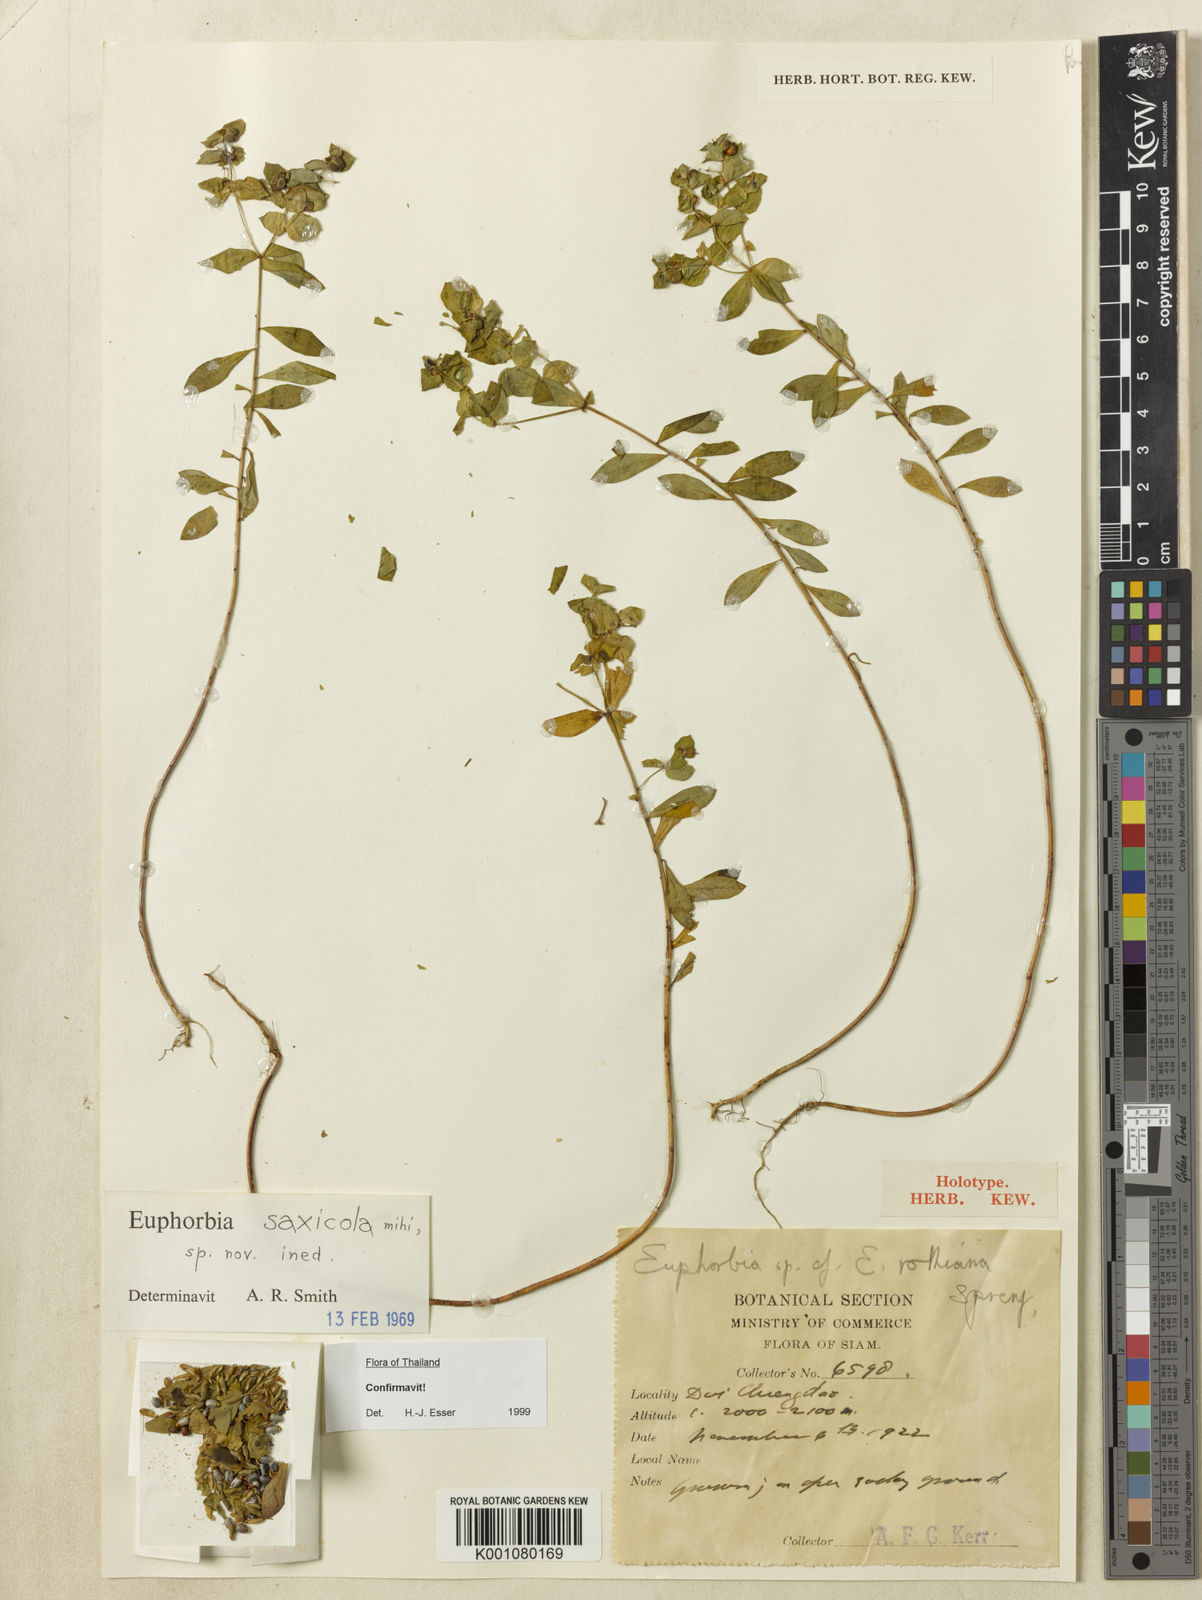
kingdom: Plantae
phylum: Tracheophyta
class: Magnoliopsida
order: Malpighiales
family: Euphorbiaceae
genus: Euphorbia
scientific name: Euphorbia saxicola
